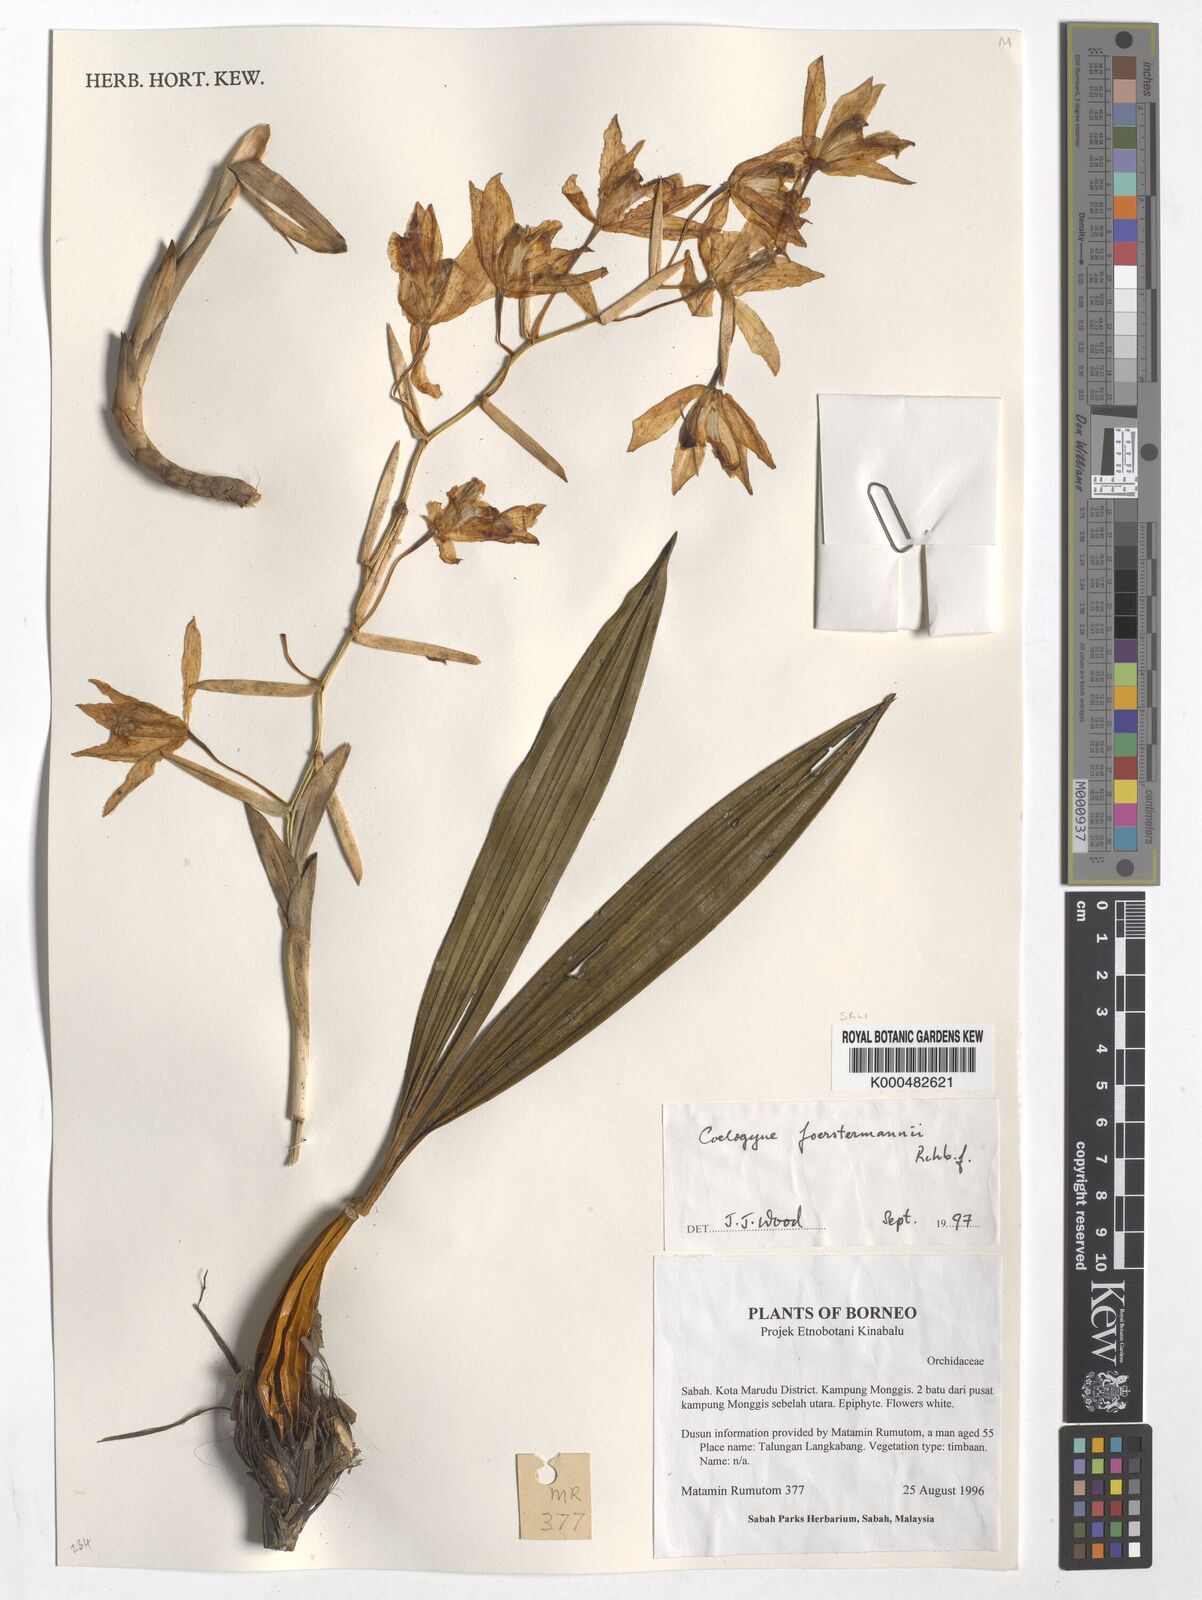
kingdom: Plantae
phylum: Tracheophyta
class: Liliopsida
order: Asparagales
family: Orchidaceae
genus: Coelogyne
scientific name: Coelogyne
